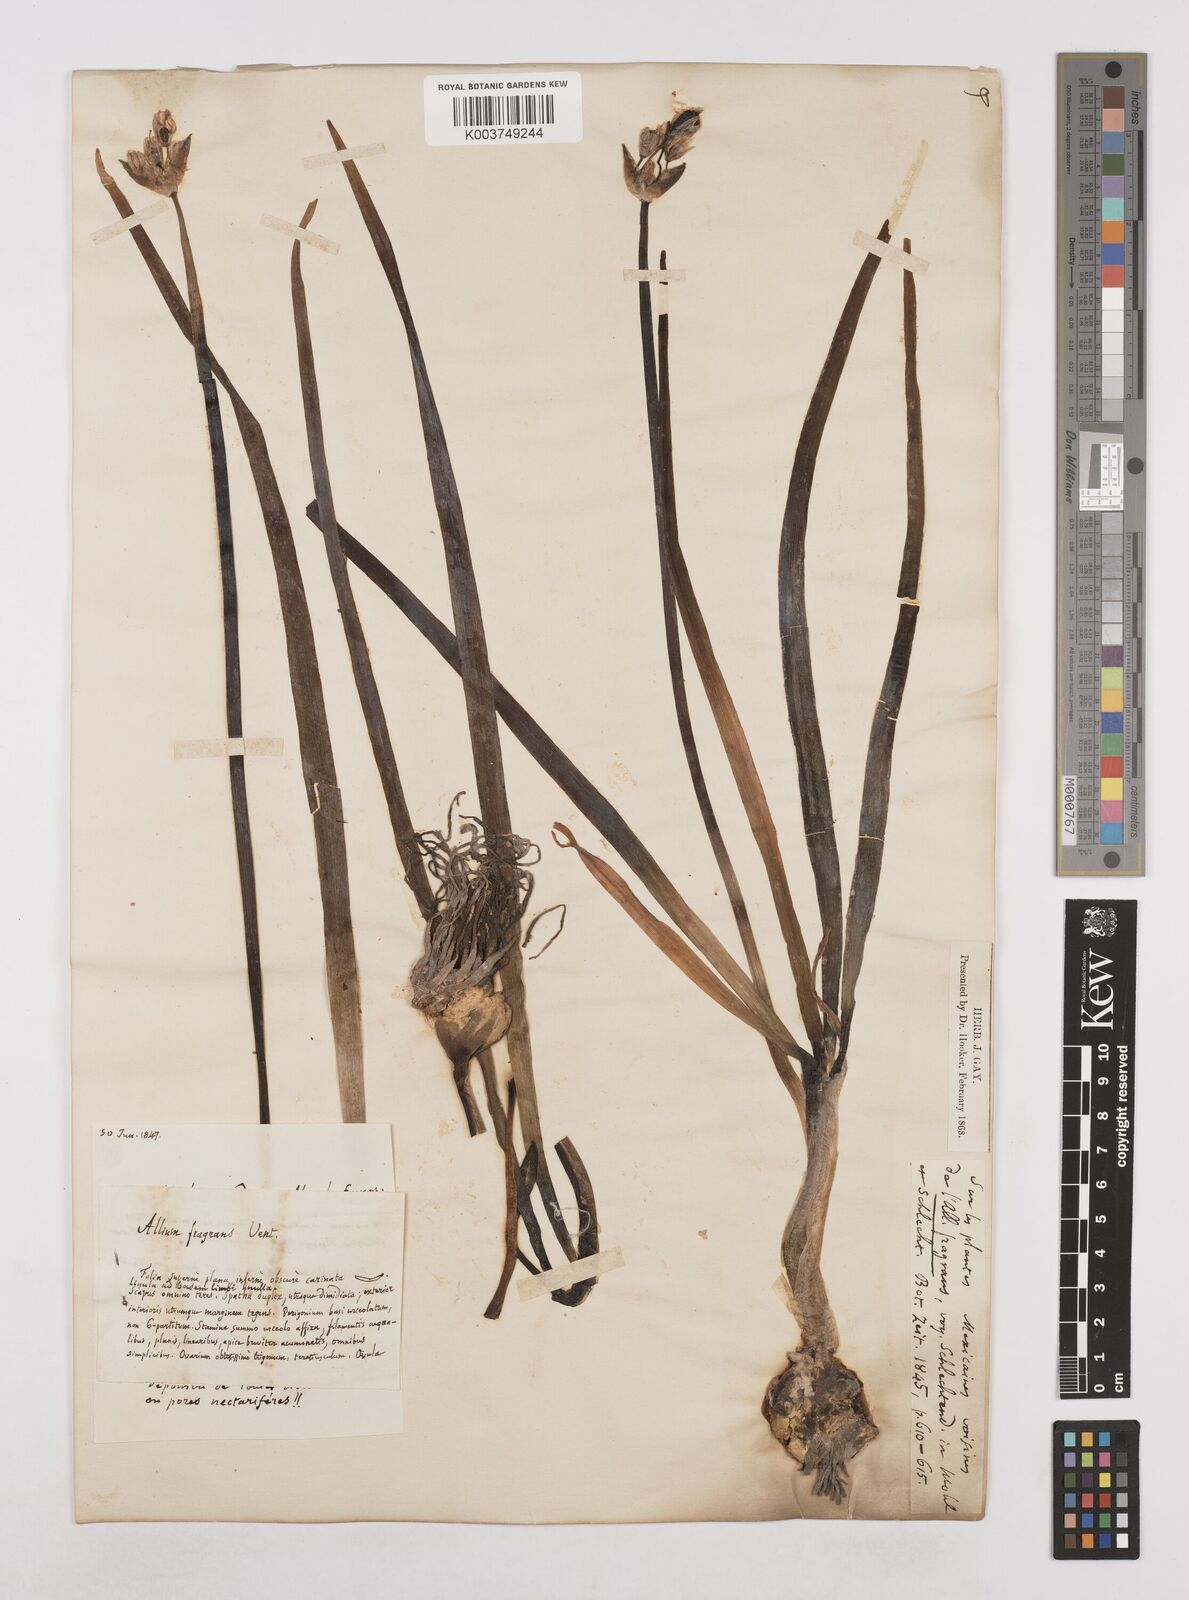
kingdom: Plantae
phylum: Tracheophyta
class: Liliopsida
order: Asparagales
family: Amaryllidaceae
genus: Allium
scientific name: Allium neapolitanum
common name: Neapolitan garlic
